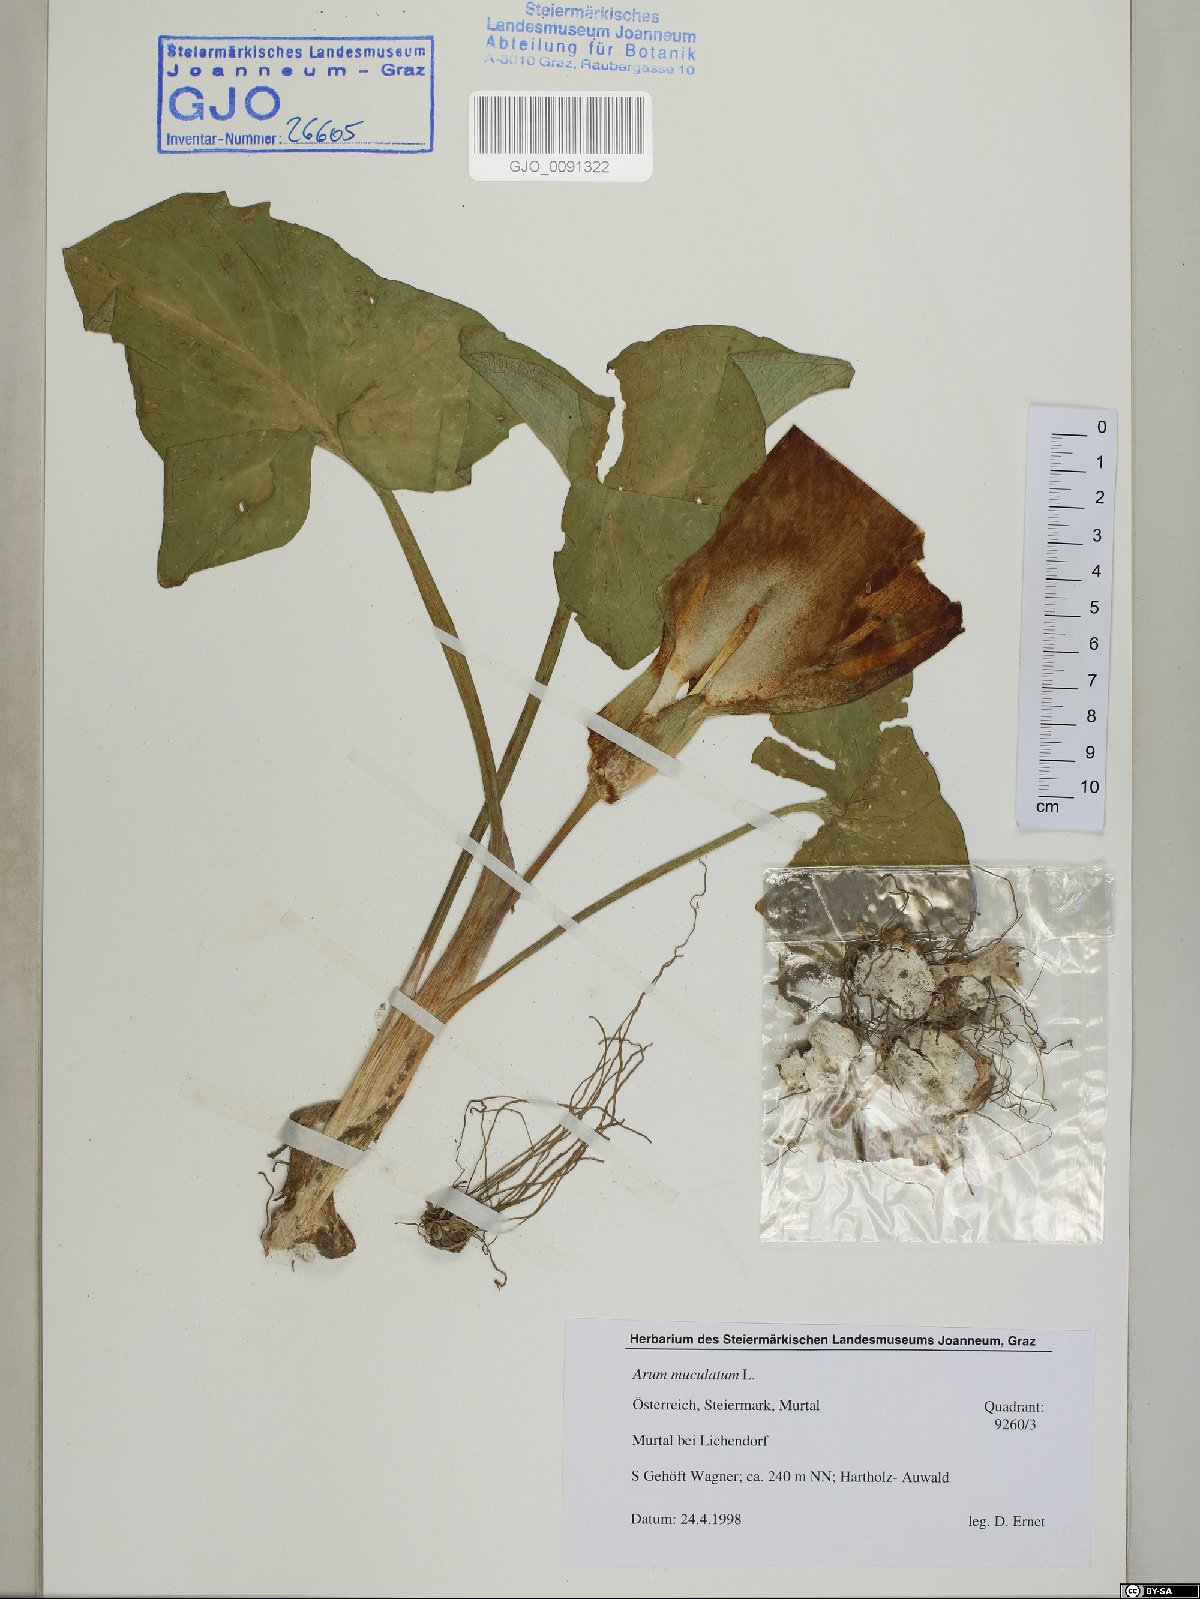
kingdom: Plantae
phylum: Tracheophyta
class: Liliopsida
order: Alismatales
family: Araceae
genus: Arum
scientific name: Arum maculatum
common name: Lords-and-ladies
